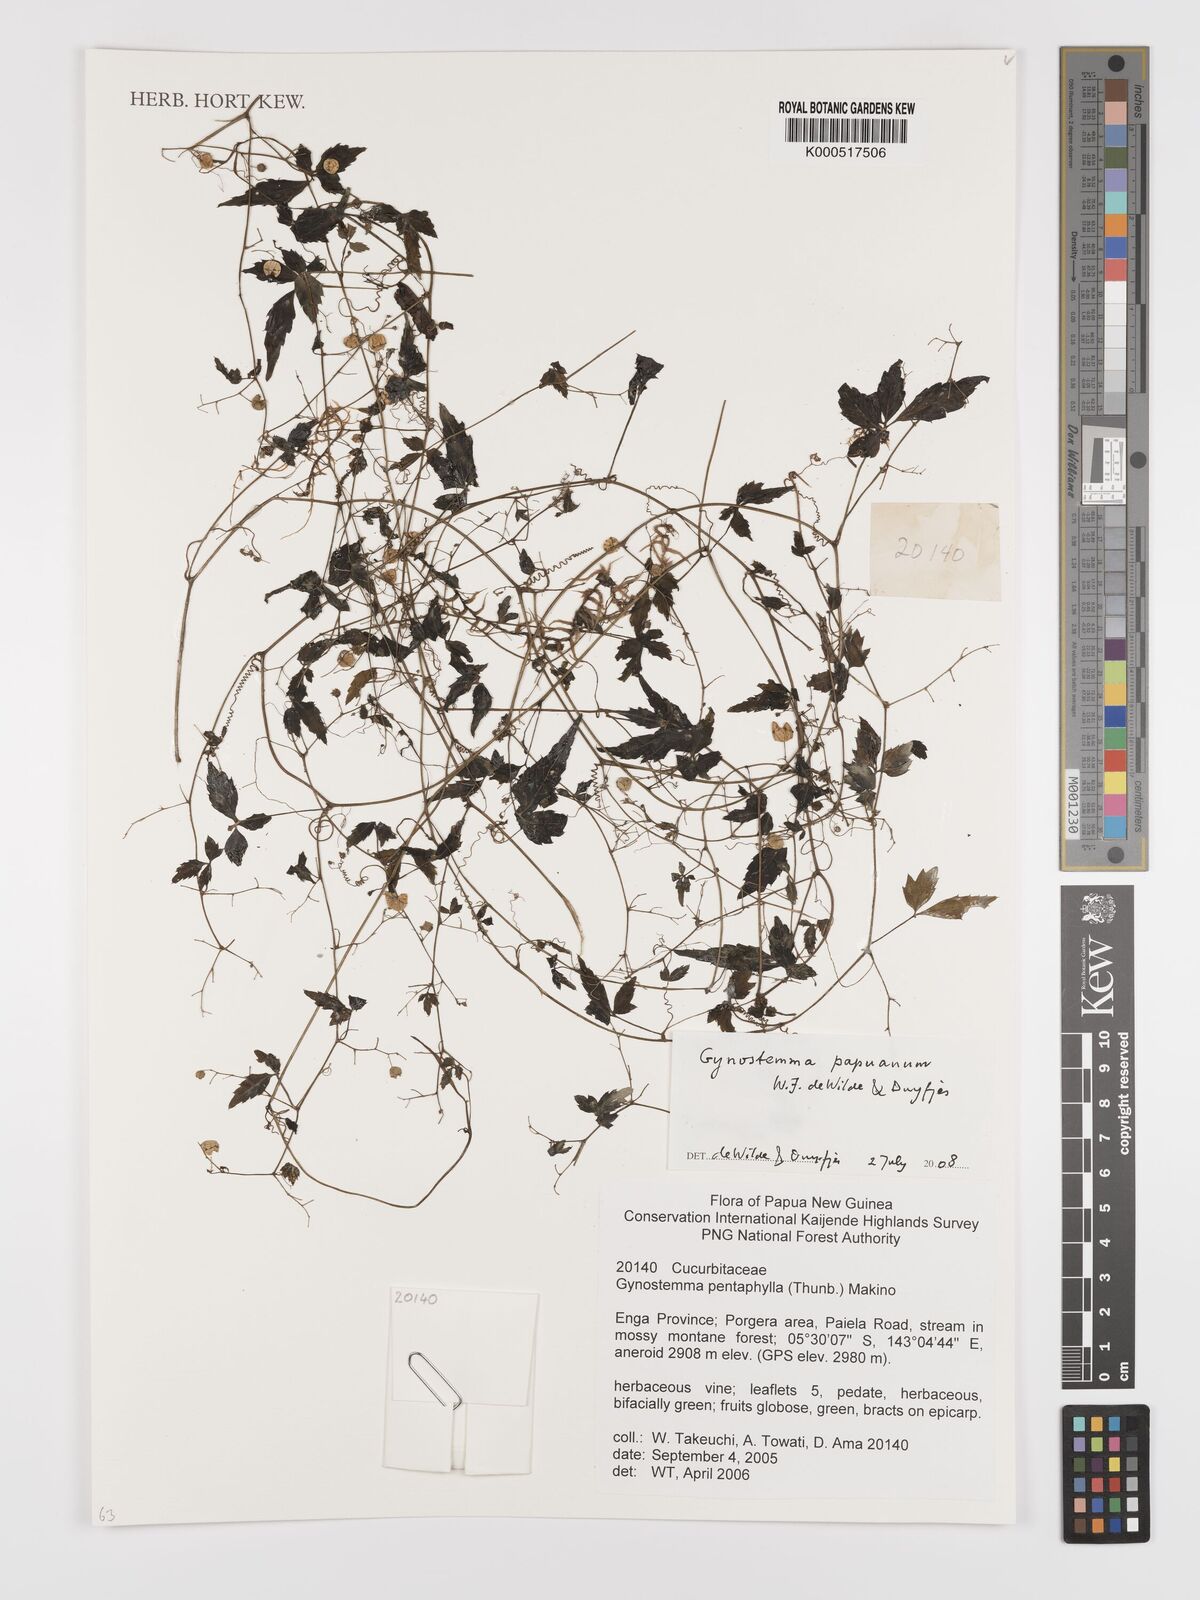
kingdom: Plantae
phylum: Tracheophyta
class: Magnoliopsida
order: Cucurbitales
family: Cucurbitaceae
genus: Gynostemma
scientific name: Gynostemma papuanum
